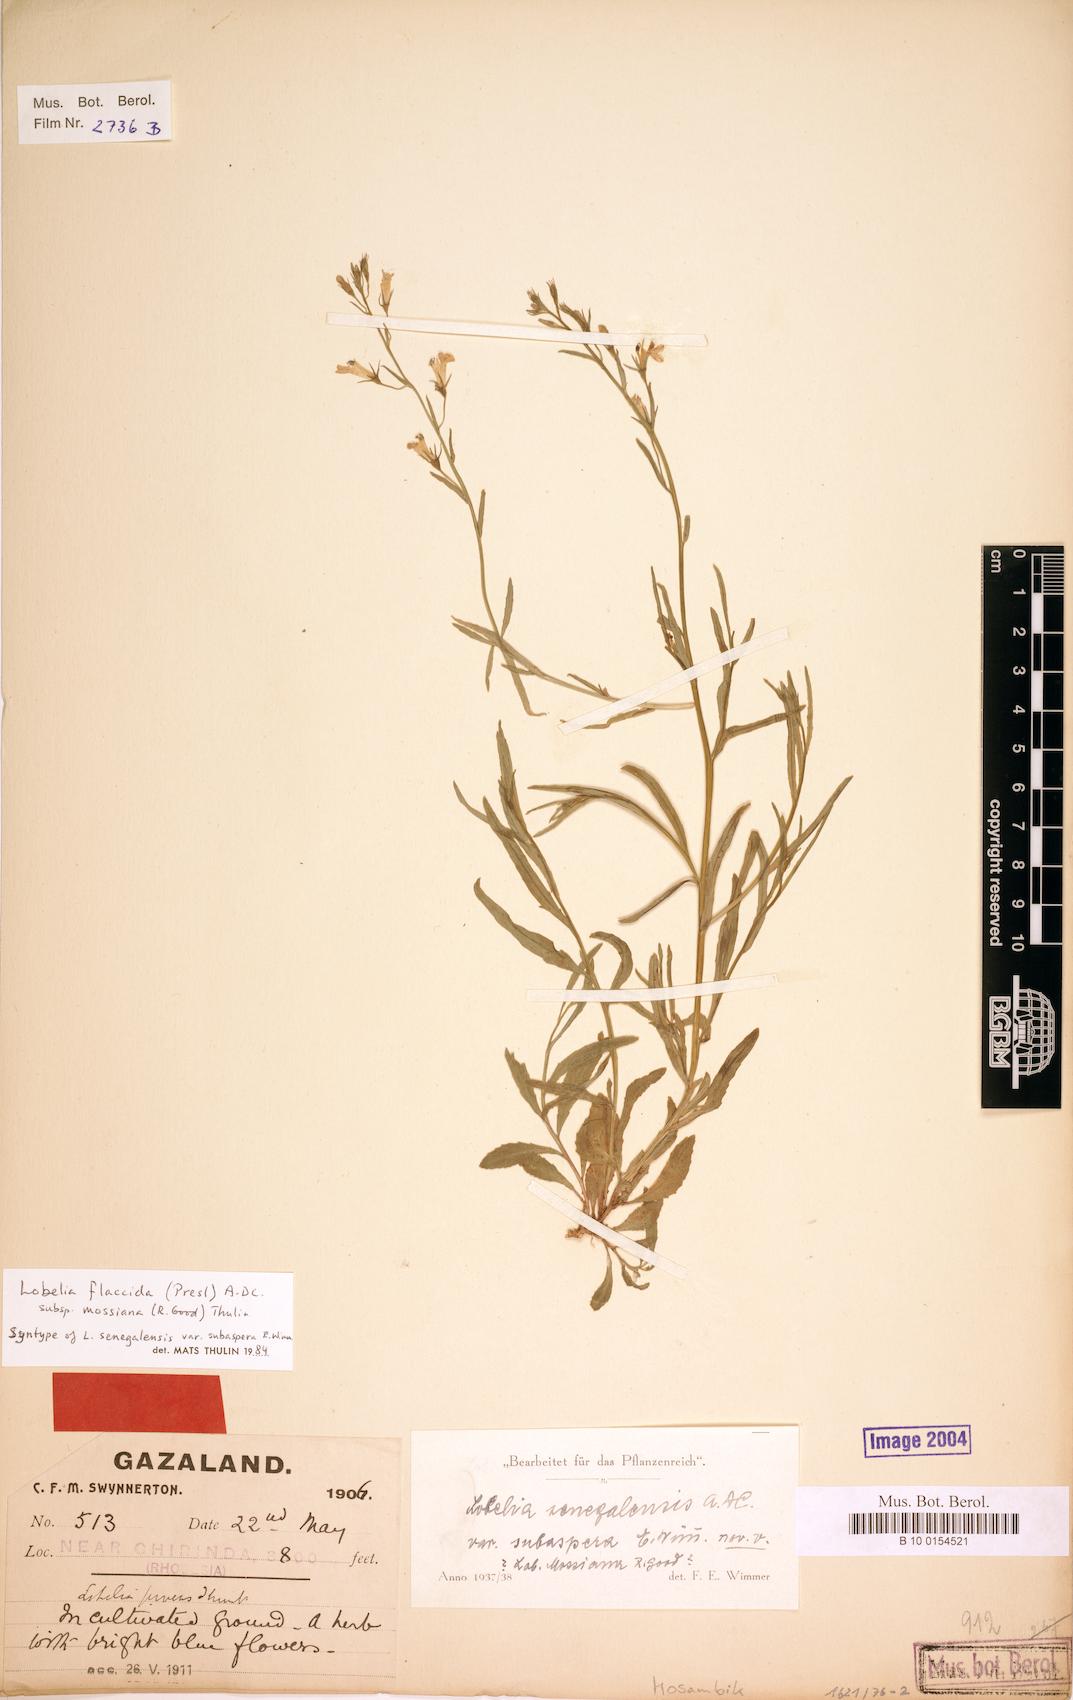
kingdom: Plantae
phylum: Tracheophyta
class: Magnoliopsida
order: Asterales
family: Campanulaceae
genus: Lobelia
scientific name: Lobelia flaccida
